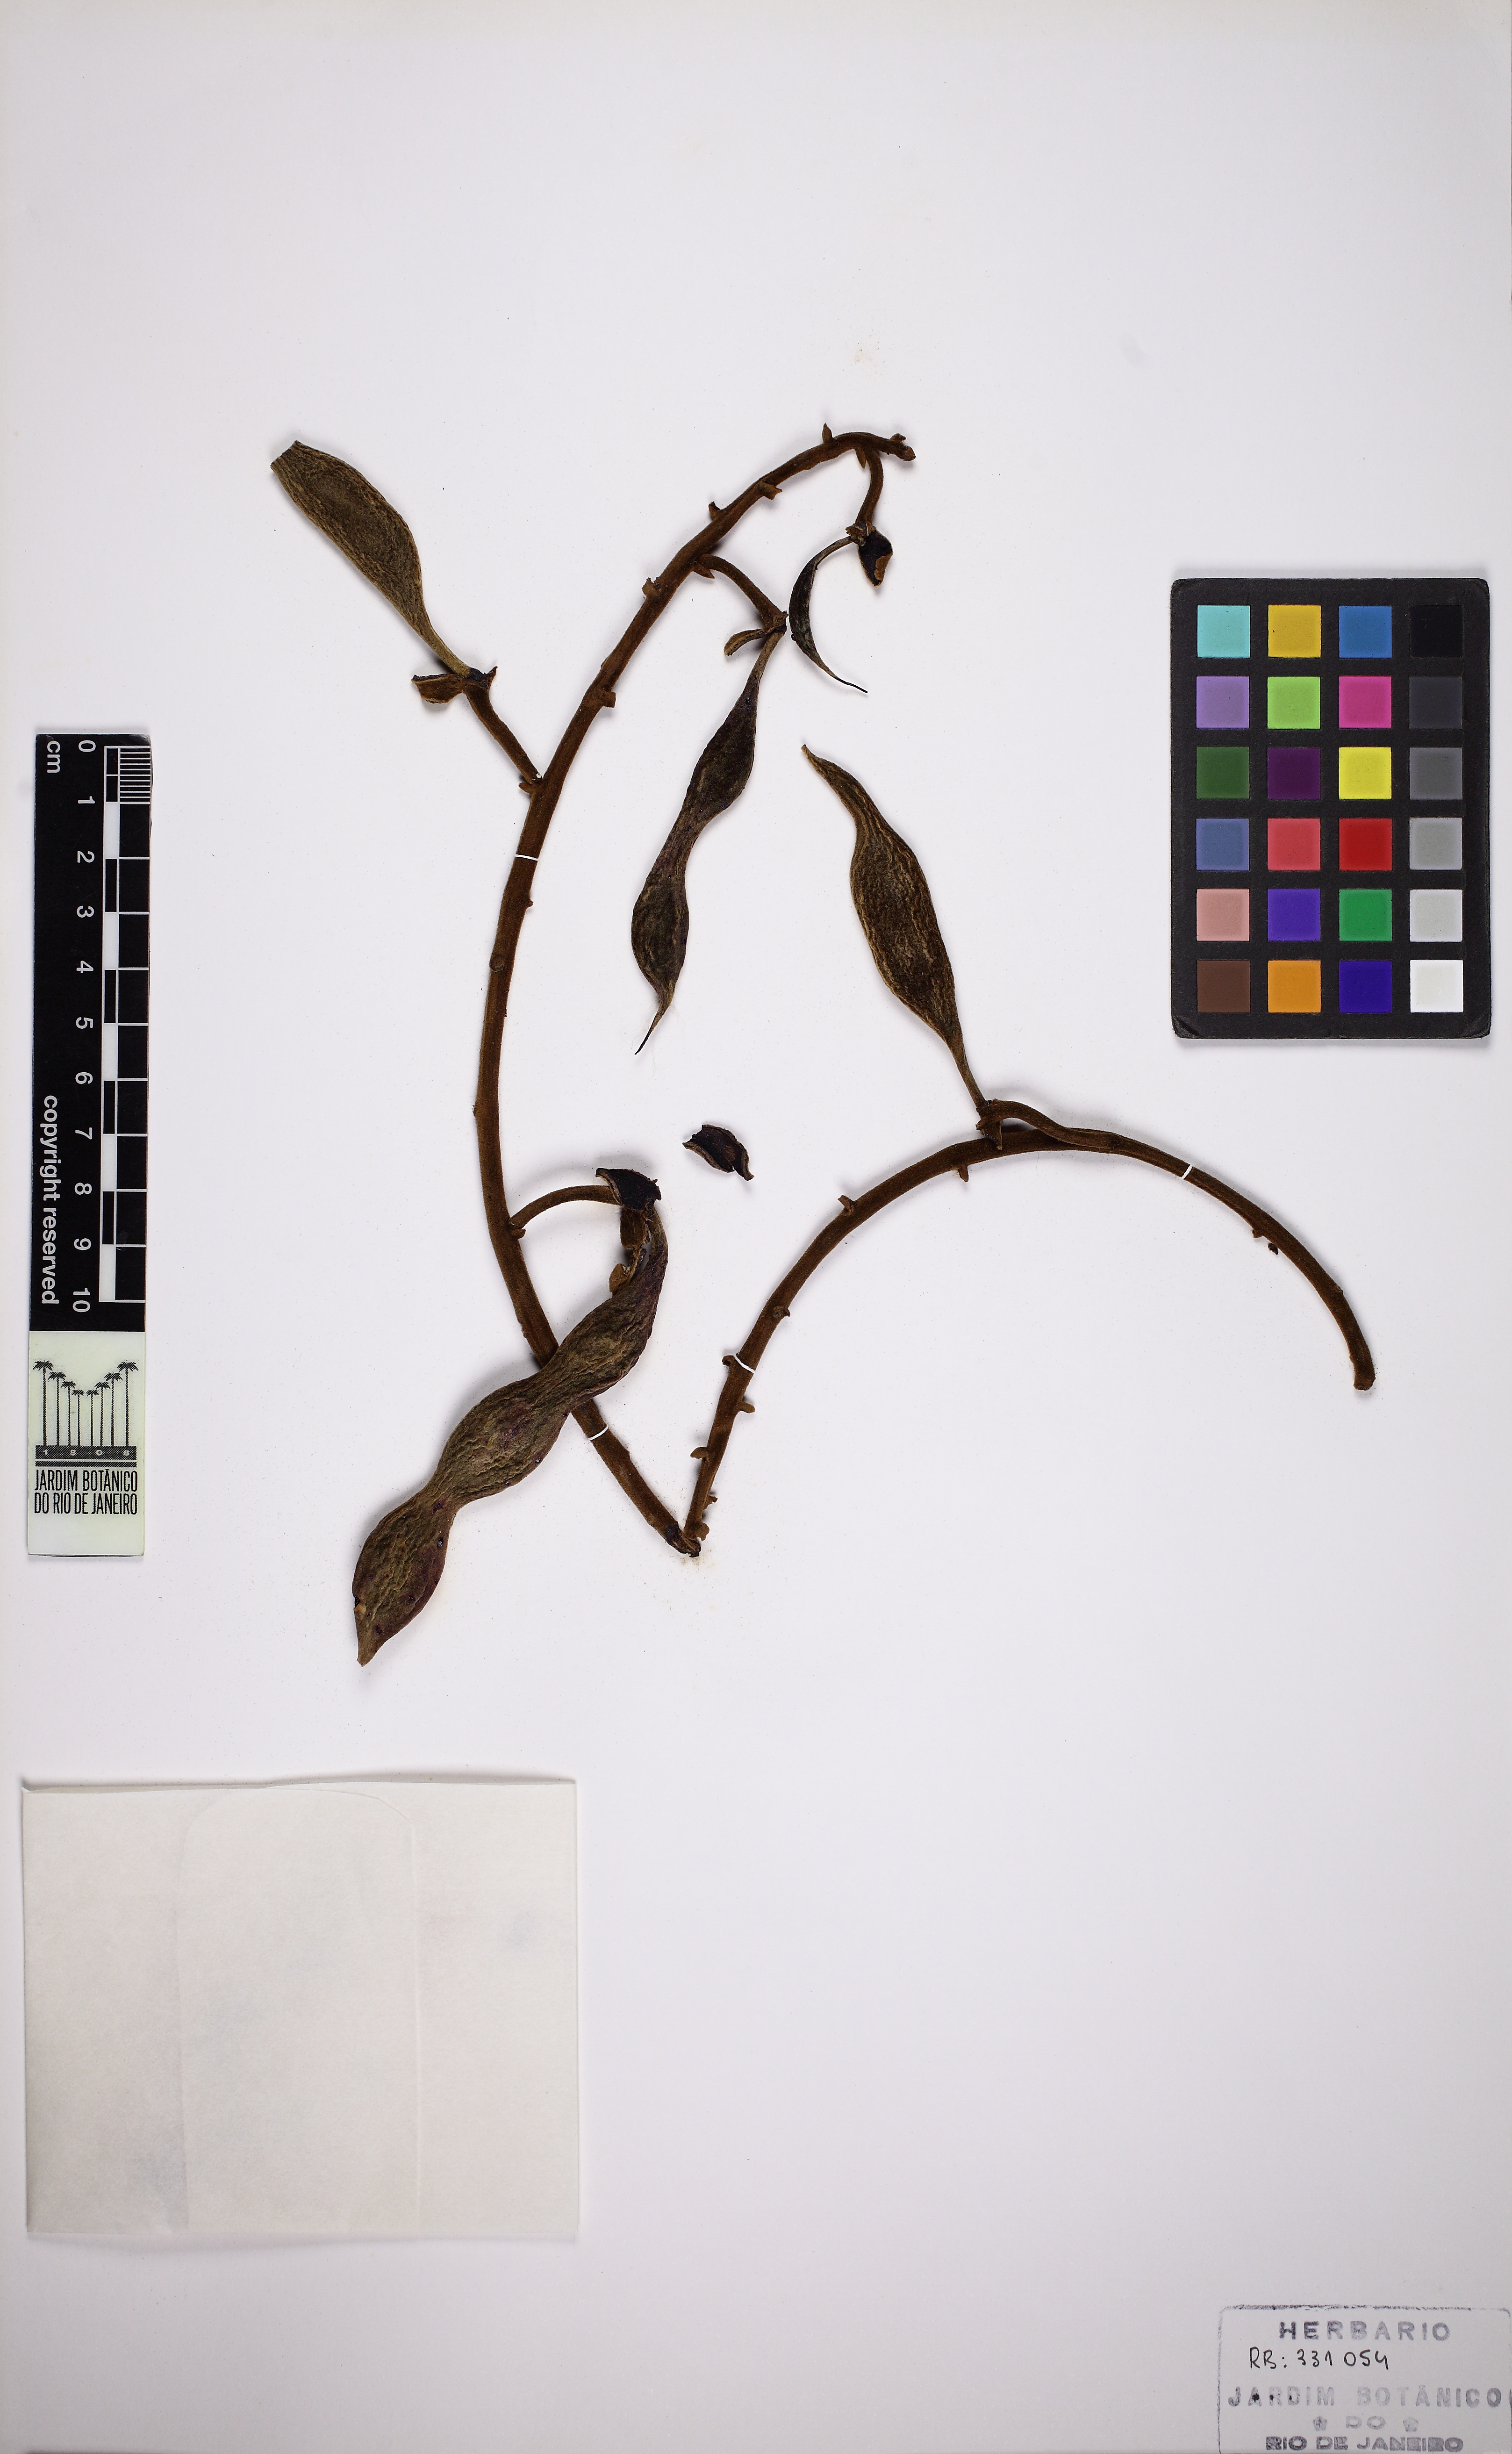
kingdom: Plantae
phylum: Tracheophyta
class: Magnoliopsida
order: Fabales
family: Fabaceae
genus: Swartzia
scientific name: Swartzia grandifolia
